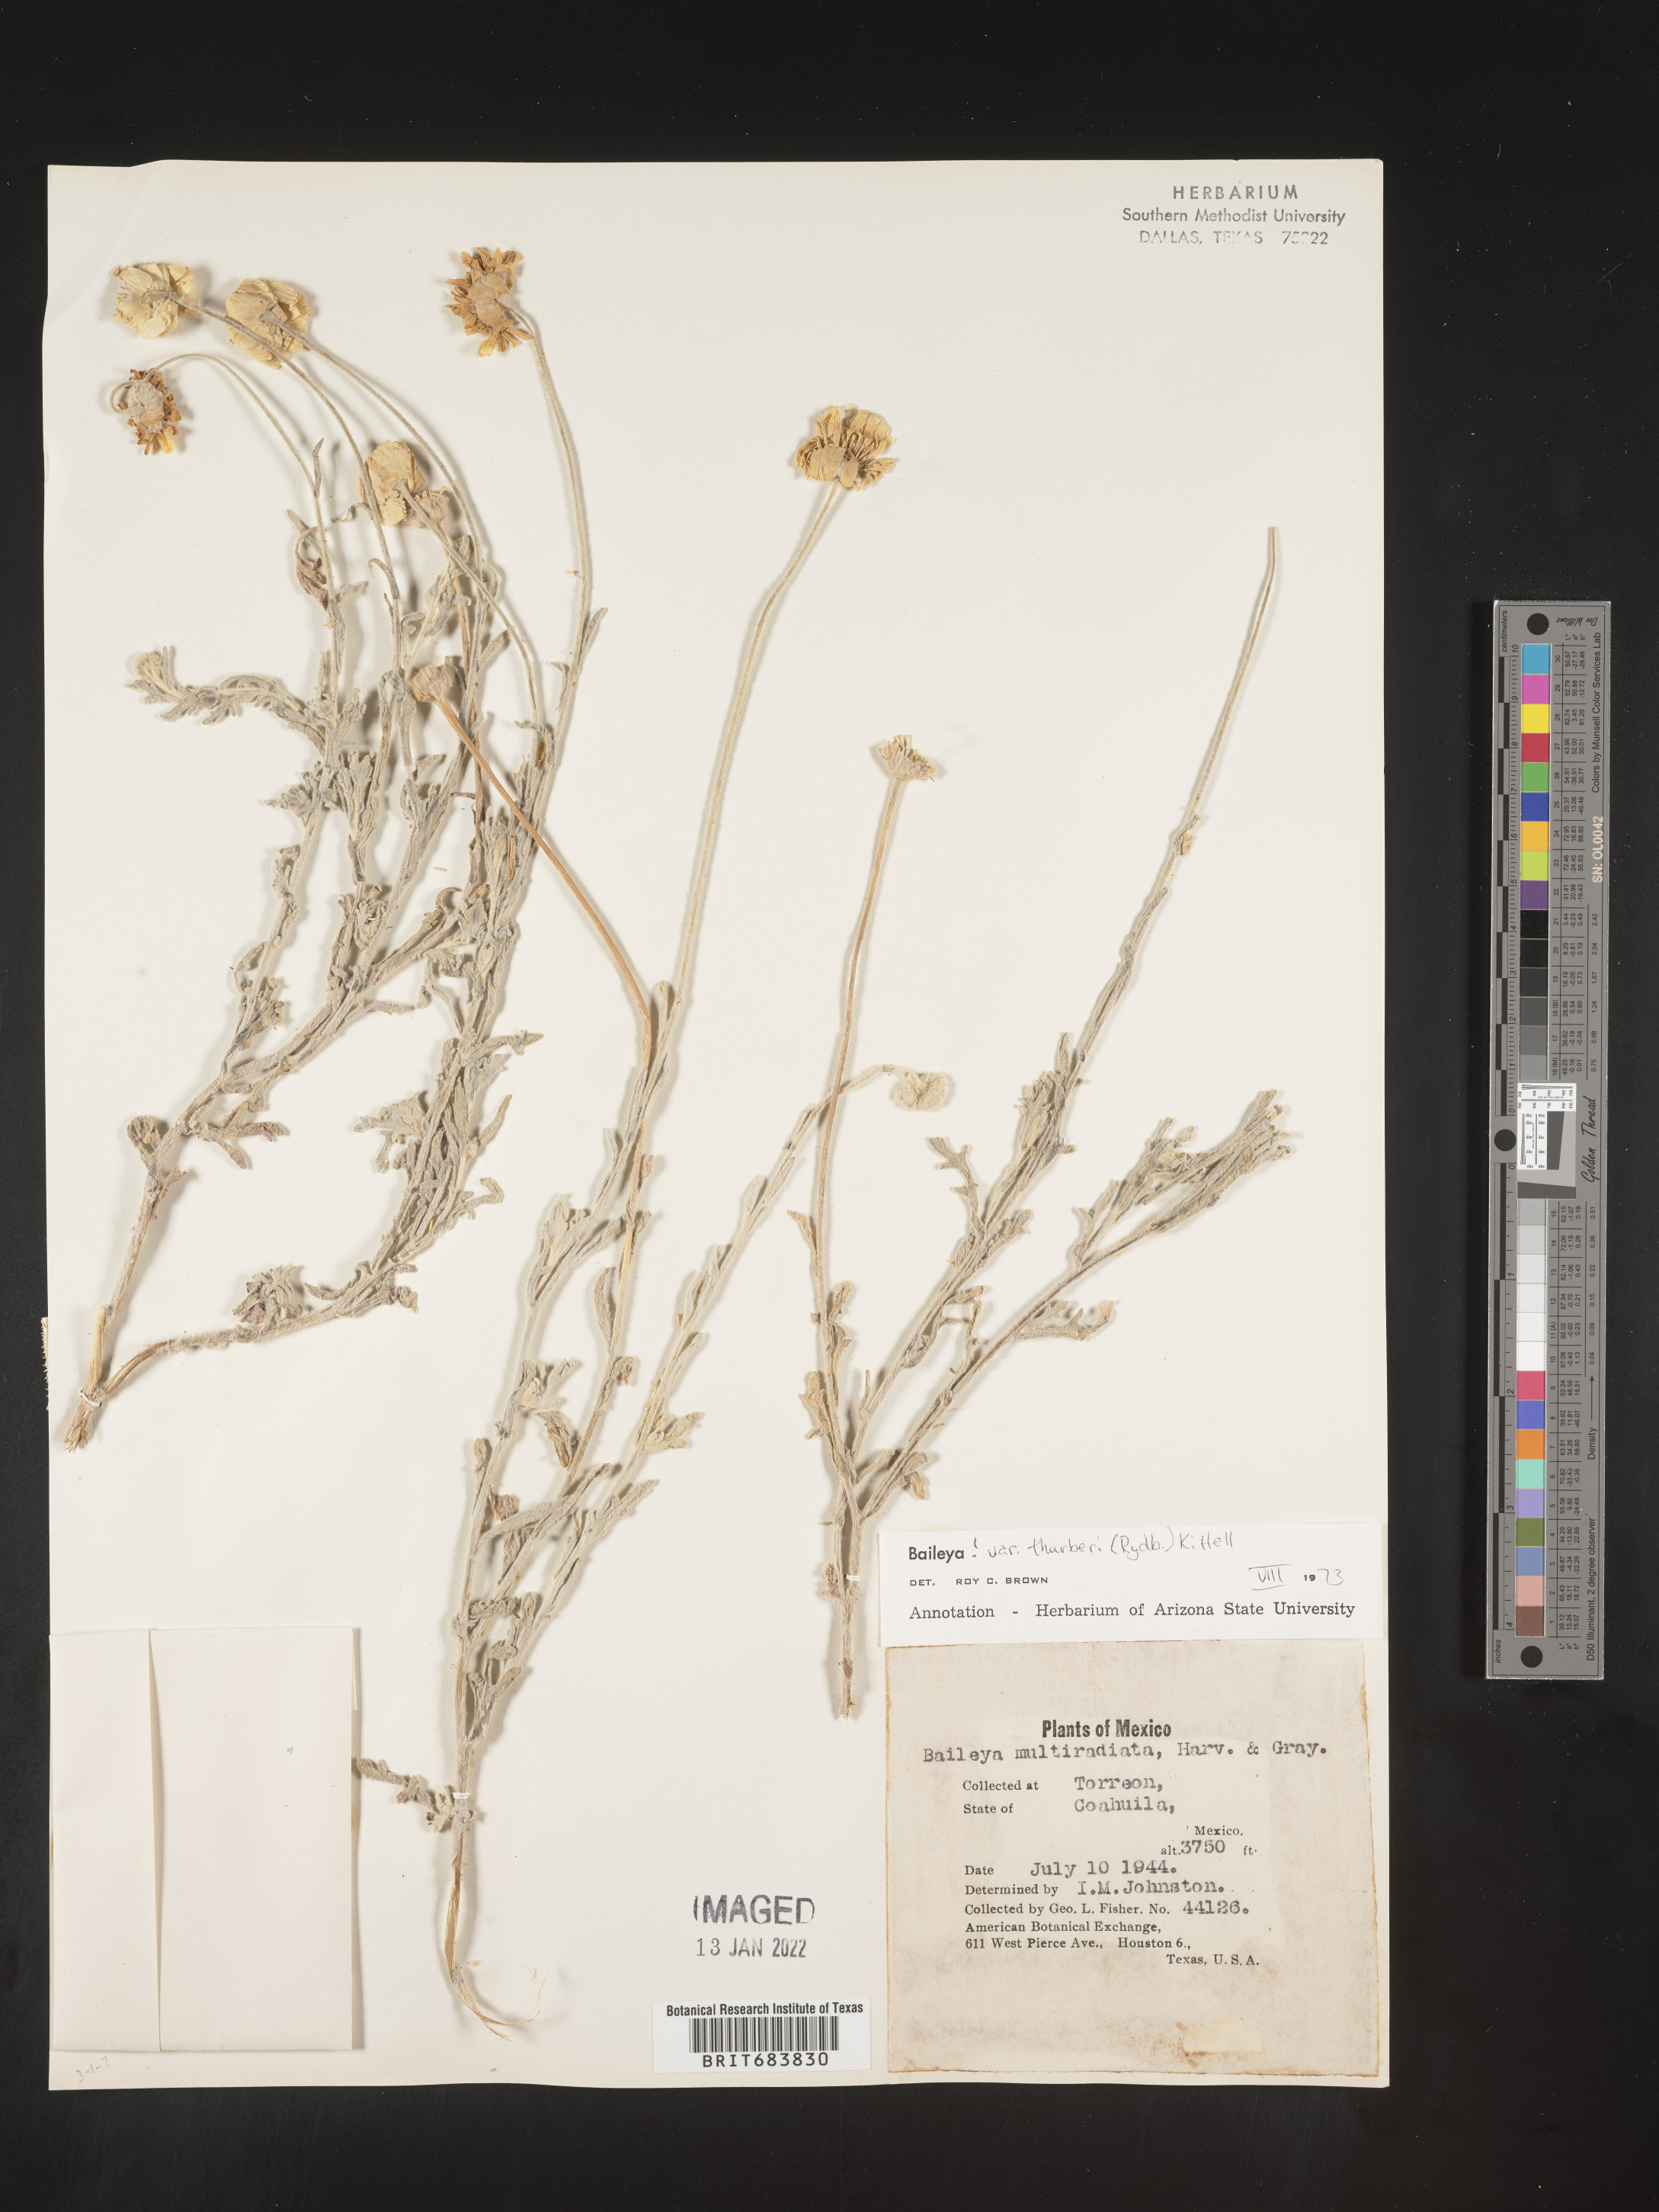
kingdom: Plantae
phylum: Tracheophyta
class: Magnoliopsida
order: Asterales
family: Asteraceae
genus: Baileya
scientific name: Baileya
